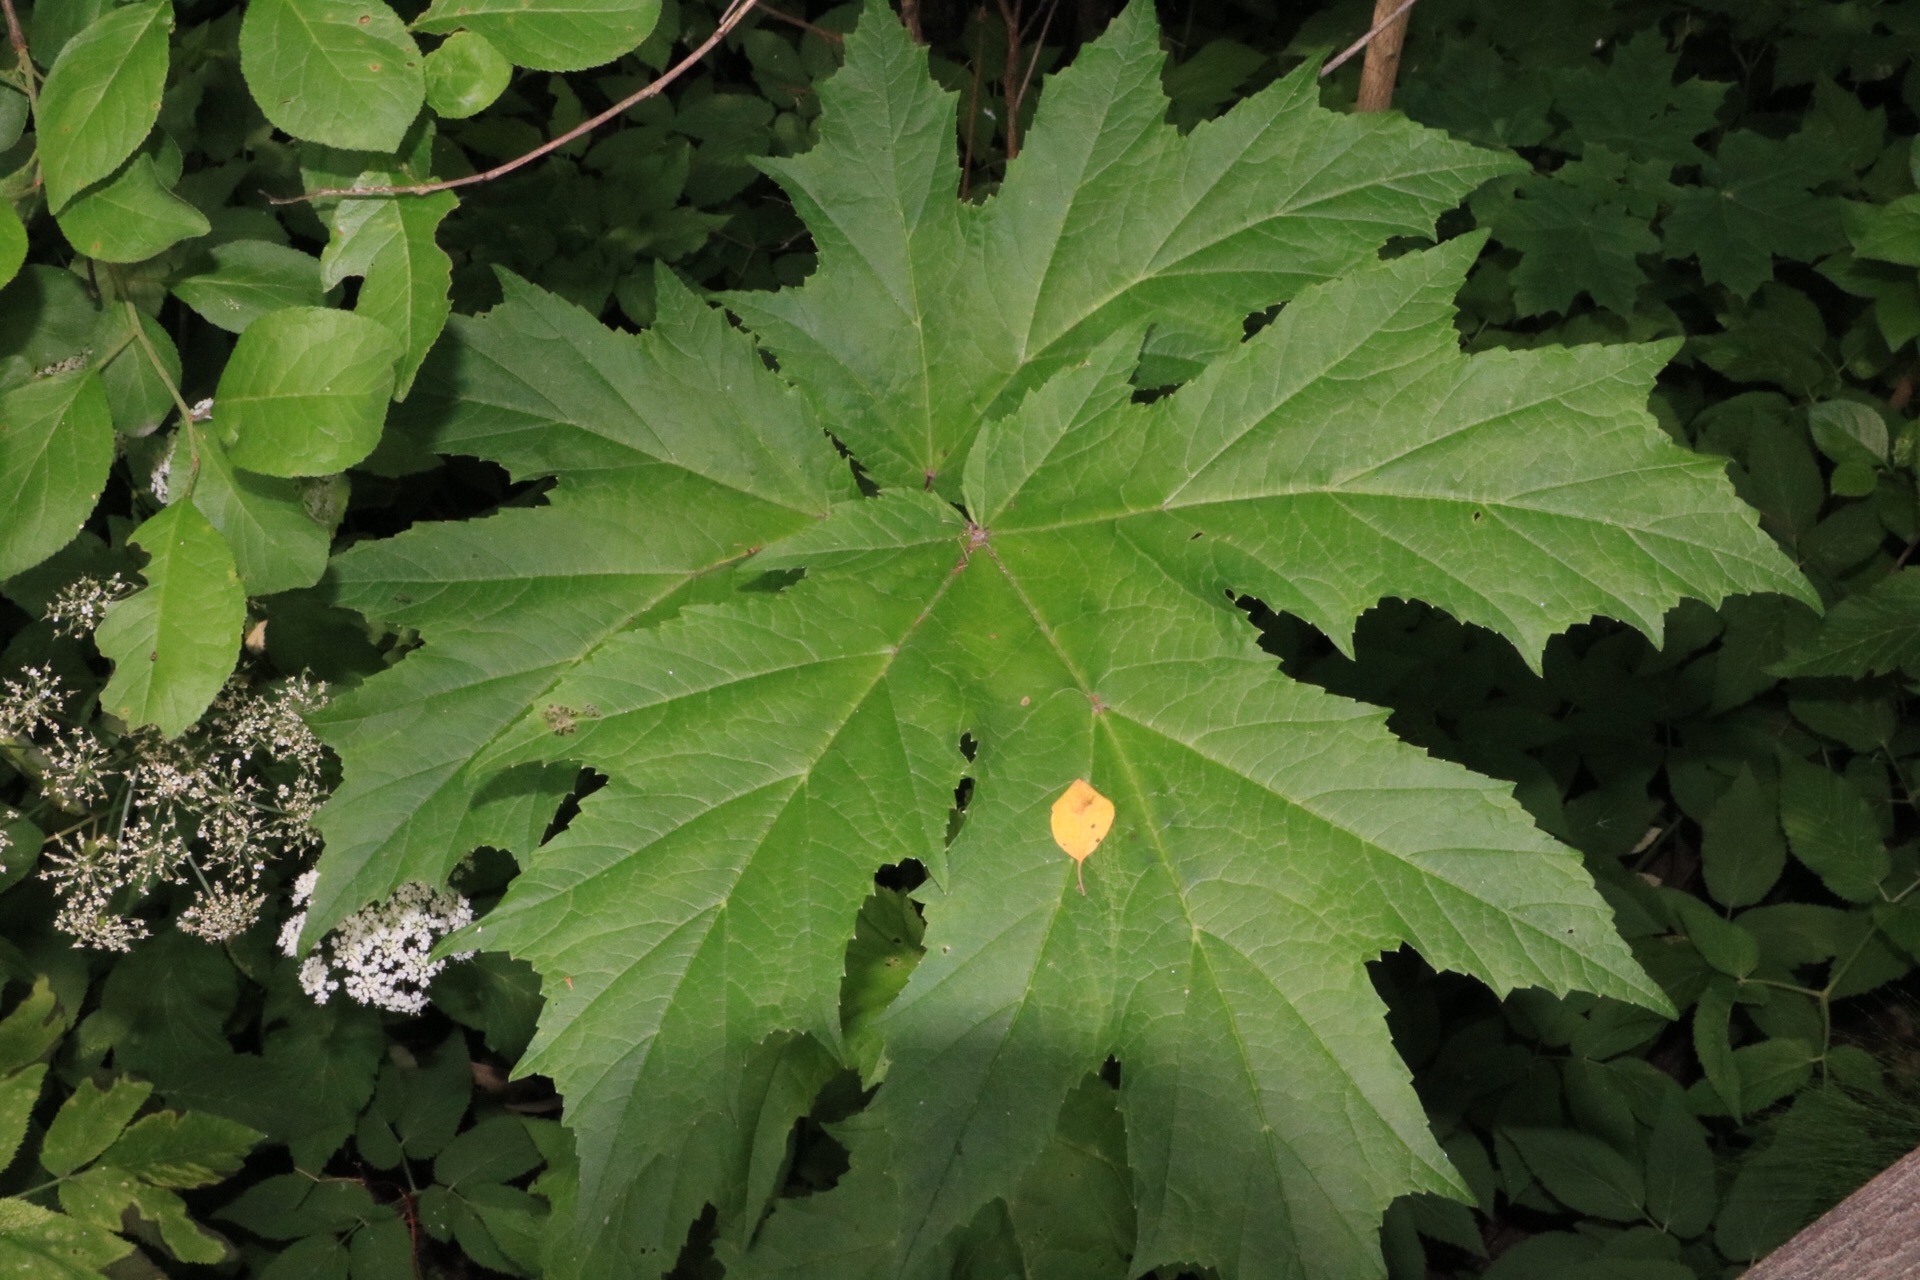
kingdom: Plantae
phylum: Tracheophyta
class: Magnoliopsida
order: Apiales
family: Apiaceae
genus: Heracleum
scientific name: Heracleum
